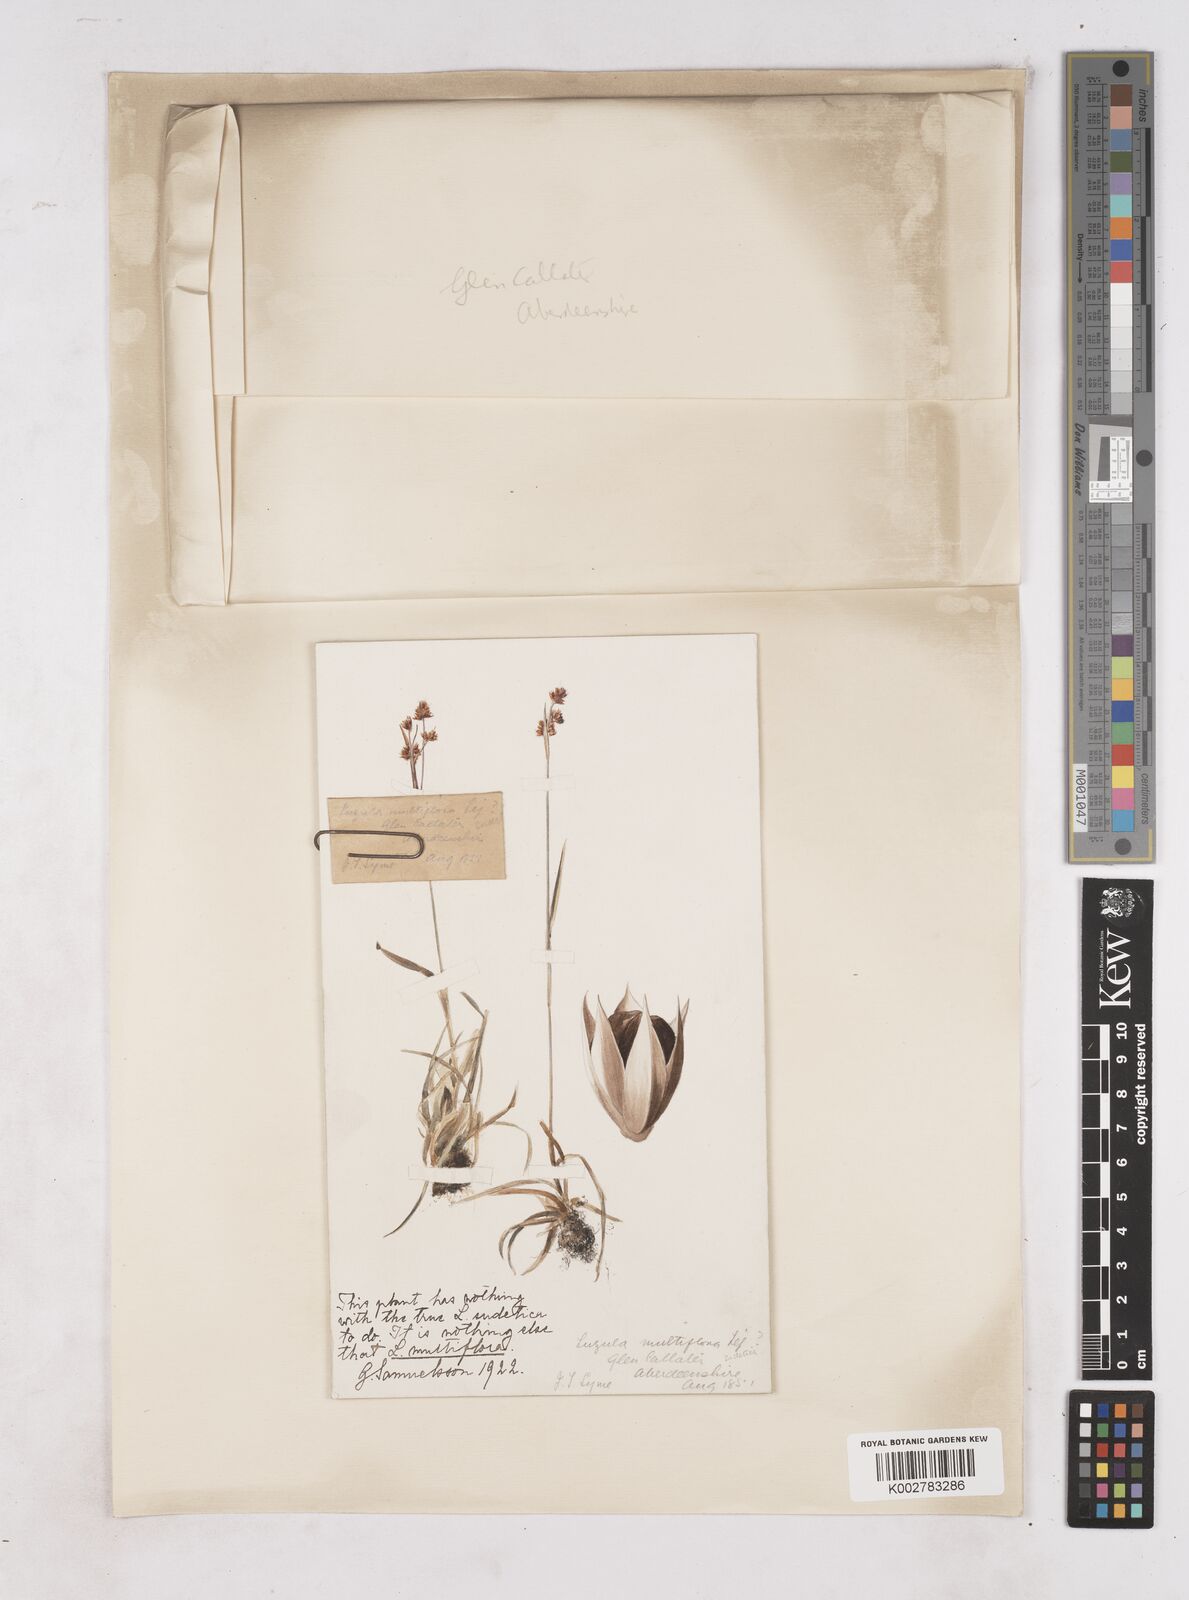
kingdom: Plantae
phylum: Tracheophyta
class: Liliopsida
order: Poales
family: Juncaceae
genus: Luzula
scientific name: Luzula multiflora
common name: Heath wood-rush
